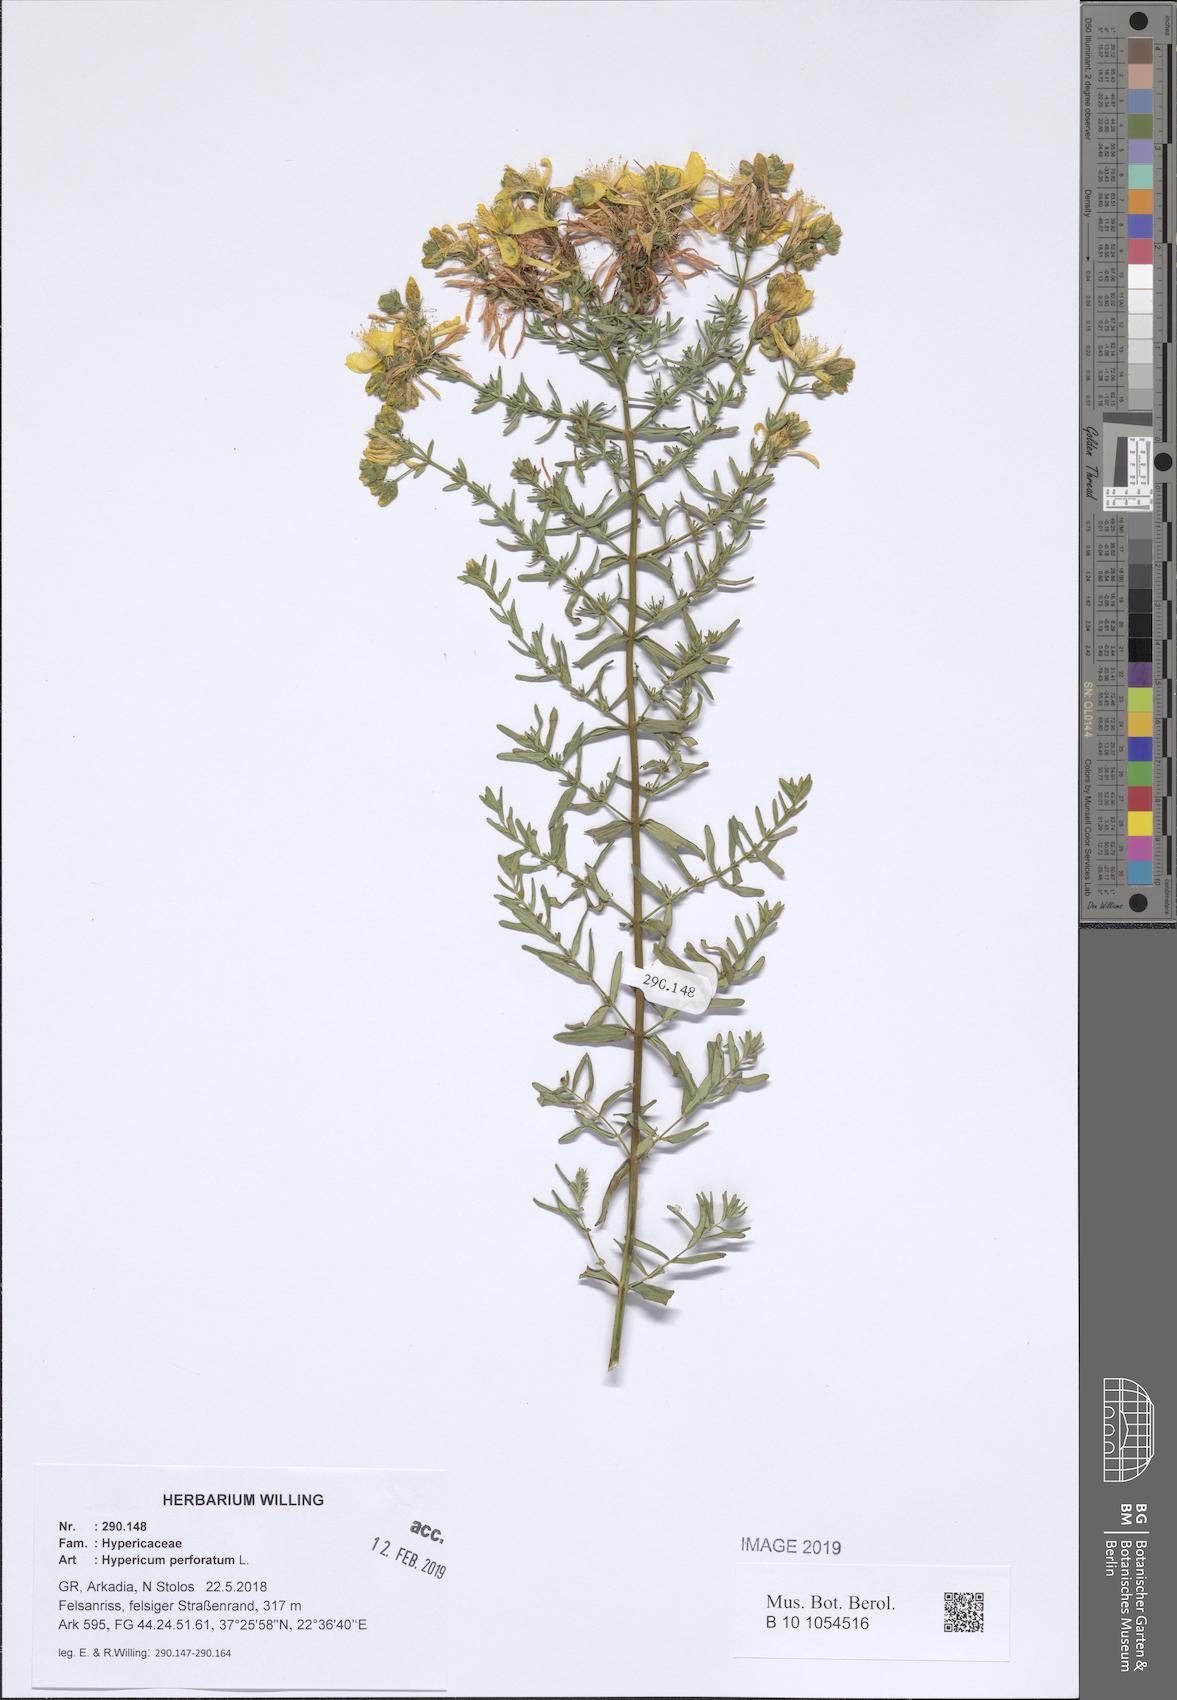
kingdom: Plantae
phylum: Tracheophyta
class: Magnoliopsida
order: Malpighiales
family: Hypericaceae
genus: Hypericum
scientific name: Hypericum perforatum
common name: Common st. johnswort
